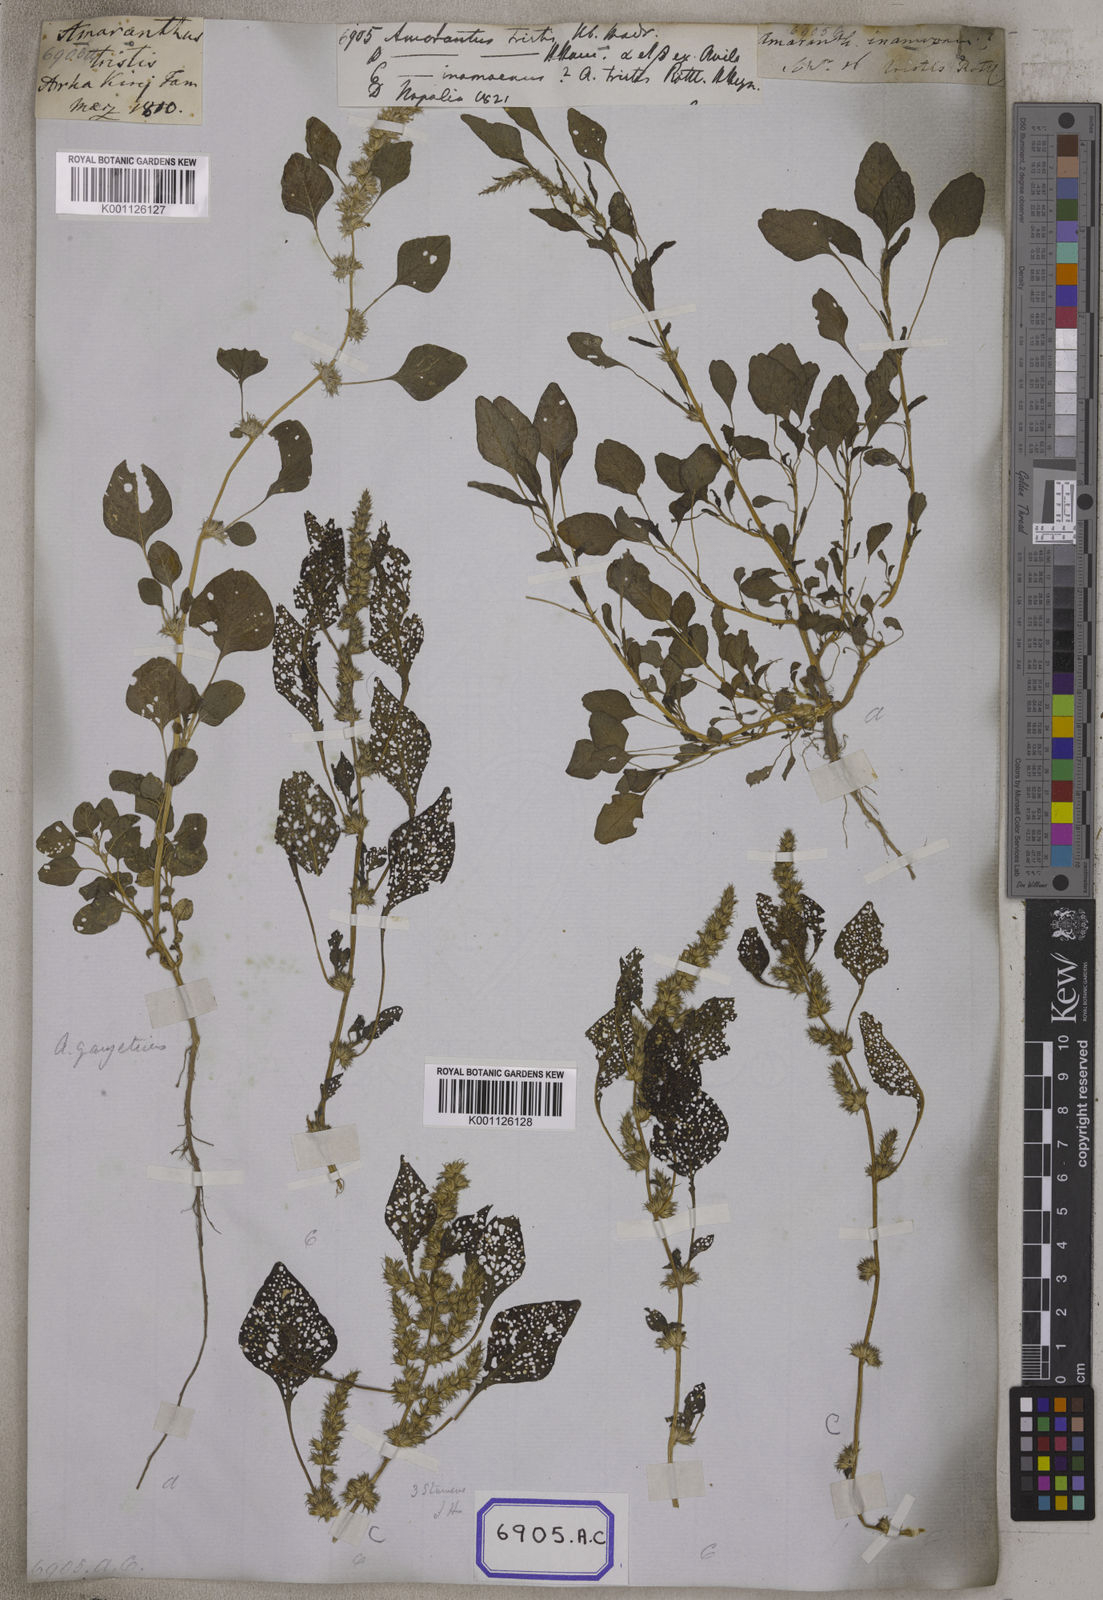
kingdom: Plantae
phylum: Tracheophyta
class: Magnoliopsida
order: Caryophyllales
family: Amaranthaceae
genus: Amaranthus
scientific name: Amaranthus
